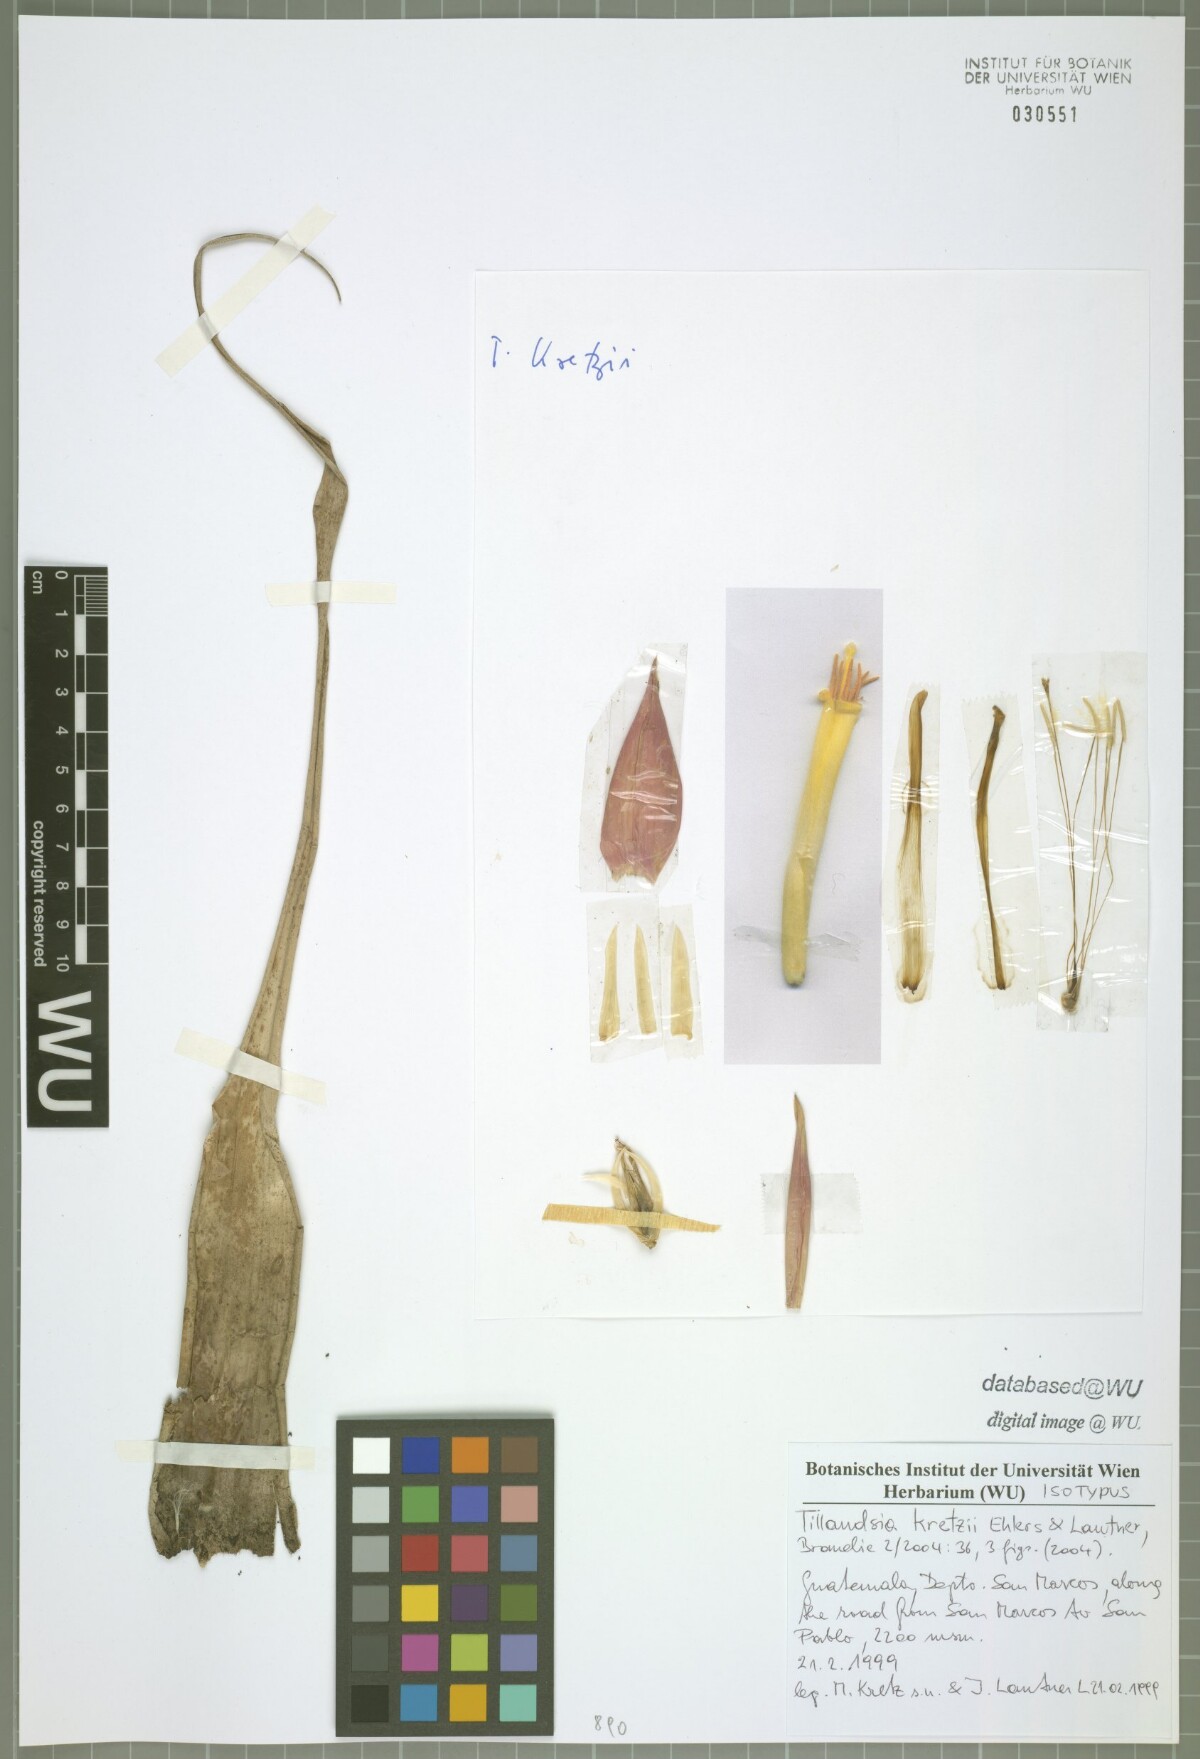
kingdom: Plantae
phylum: Tracheophyta
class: Liliopsida
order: Poales
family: Bromeliaceae
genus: Tillandsia
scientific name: Tillandsia kretzii
